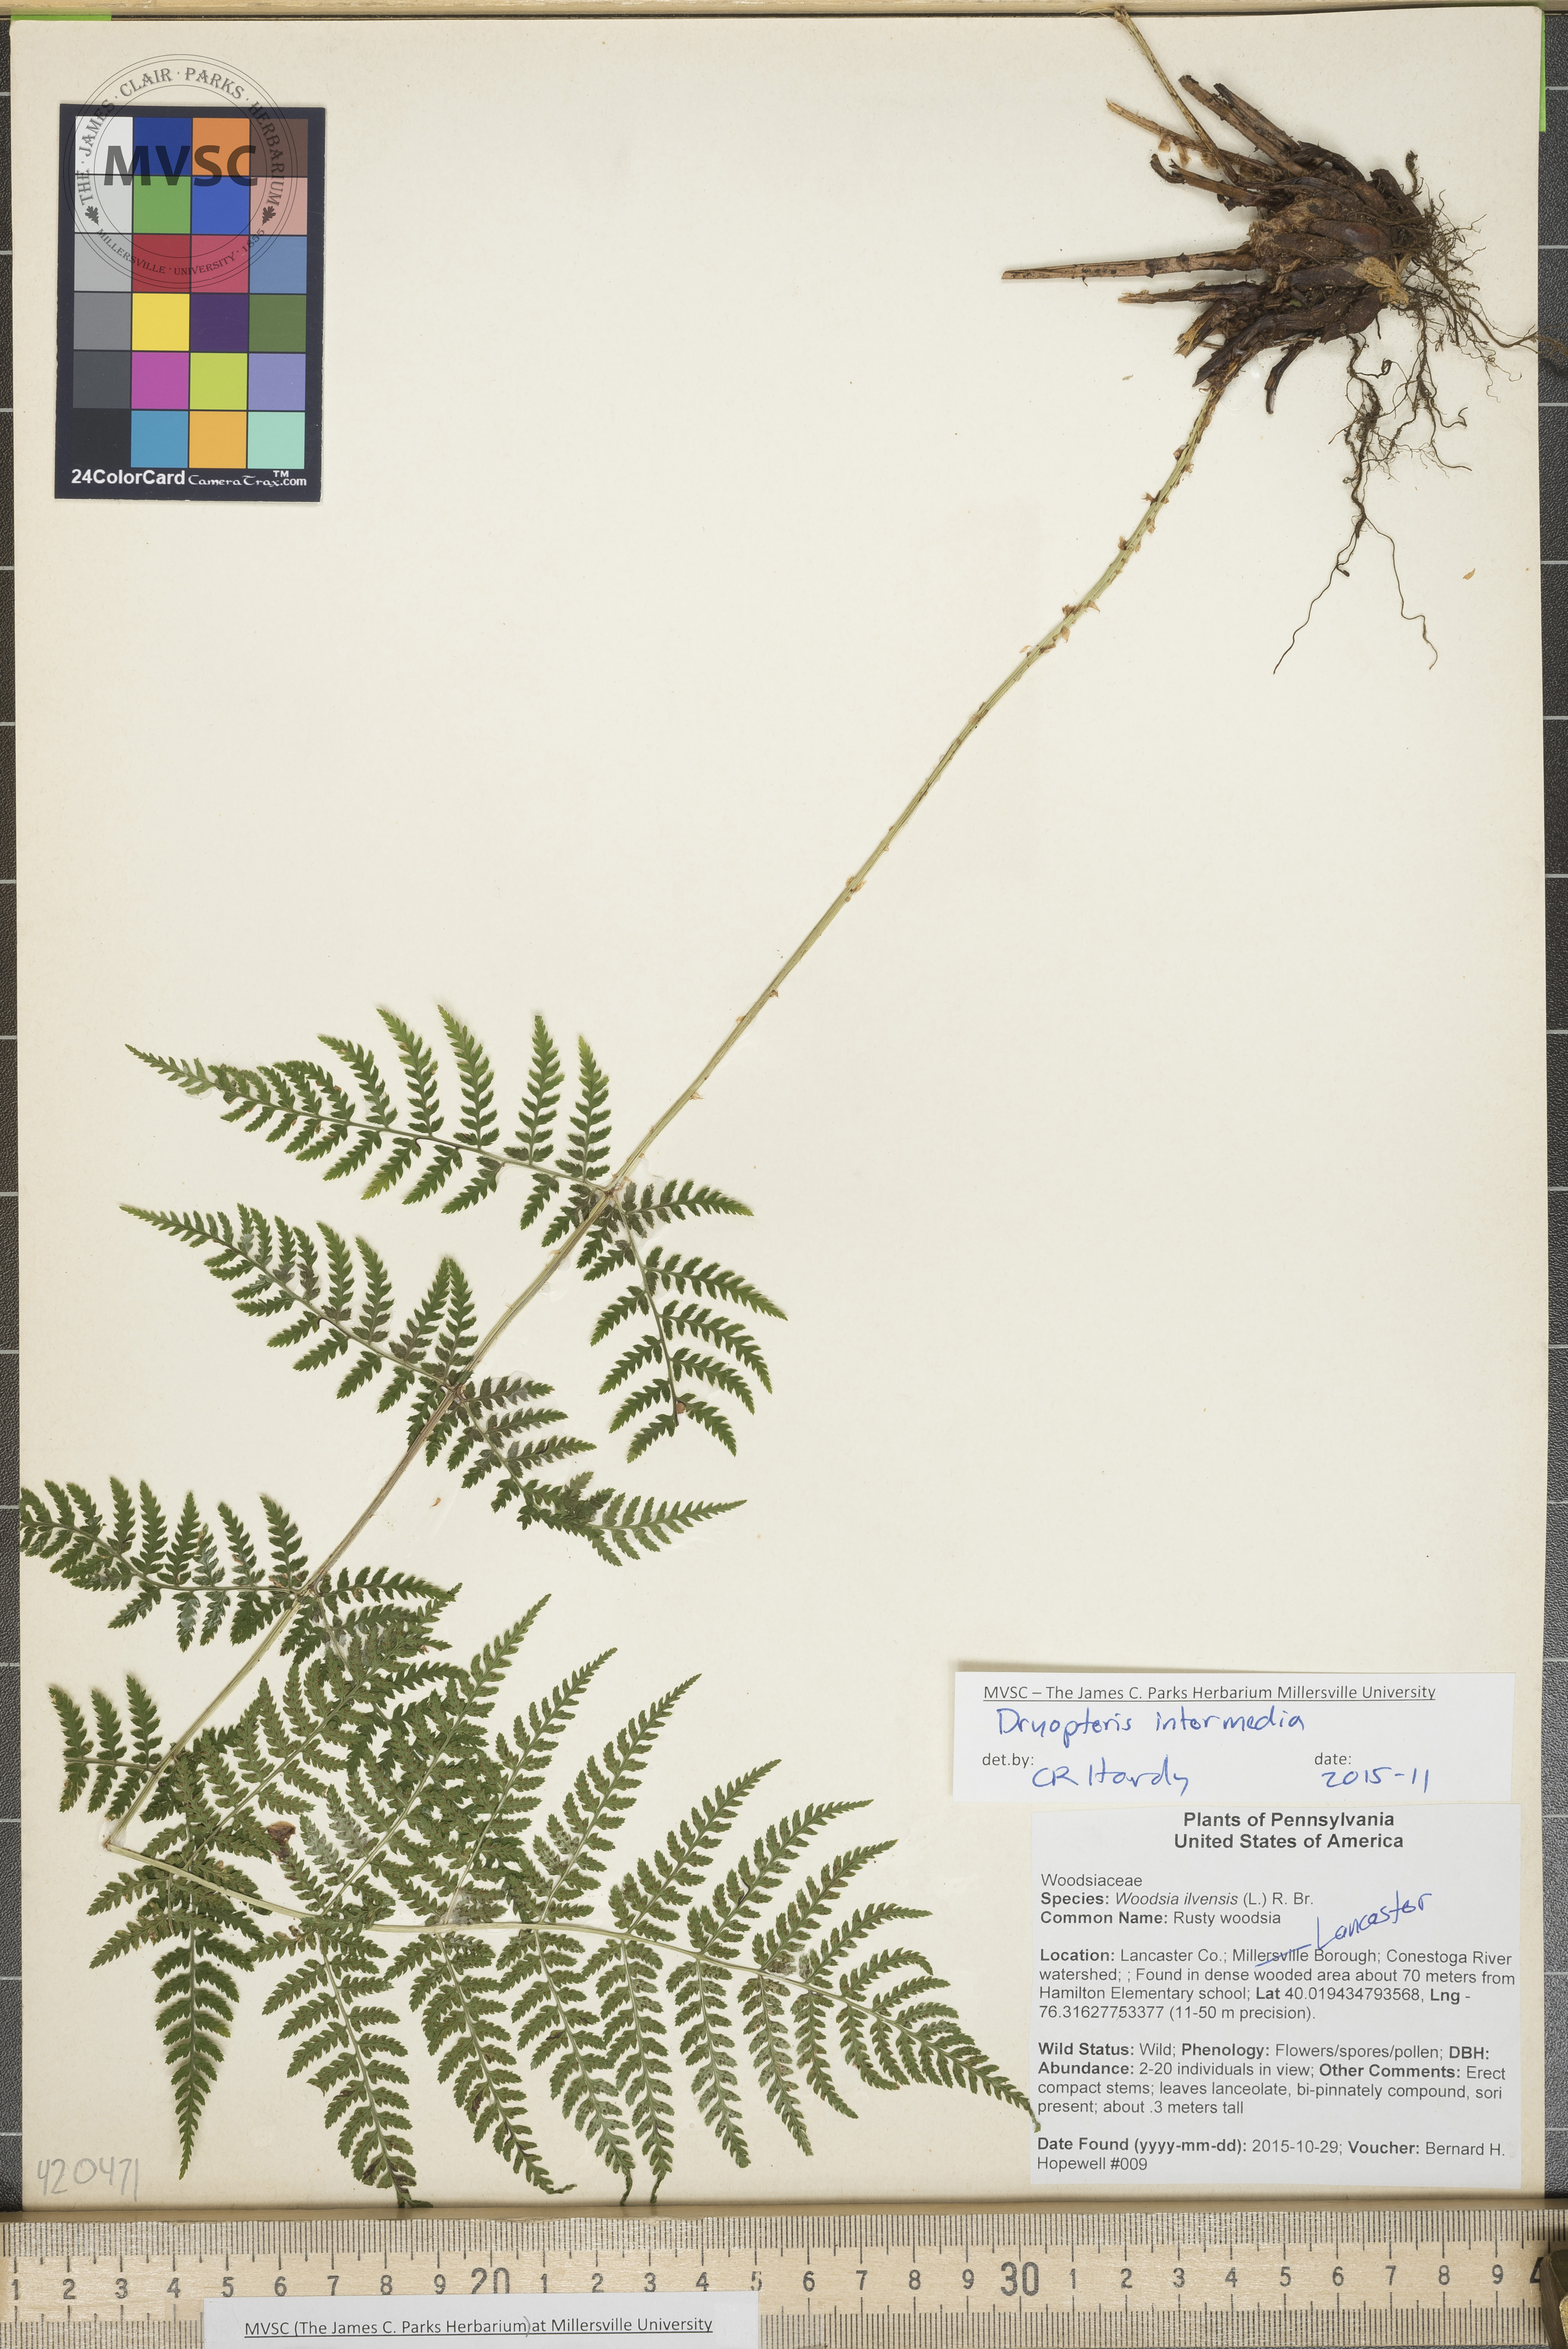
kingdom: Plantae
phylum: Tracheophyta
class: Polypodiopsida
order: Polypodiales
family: Dryopteridaceae
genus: Dryopteris
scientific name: Dryopteris intermedia
